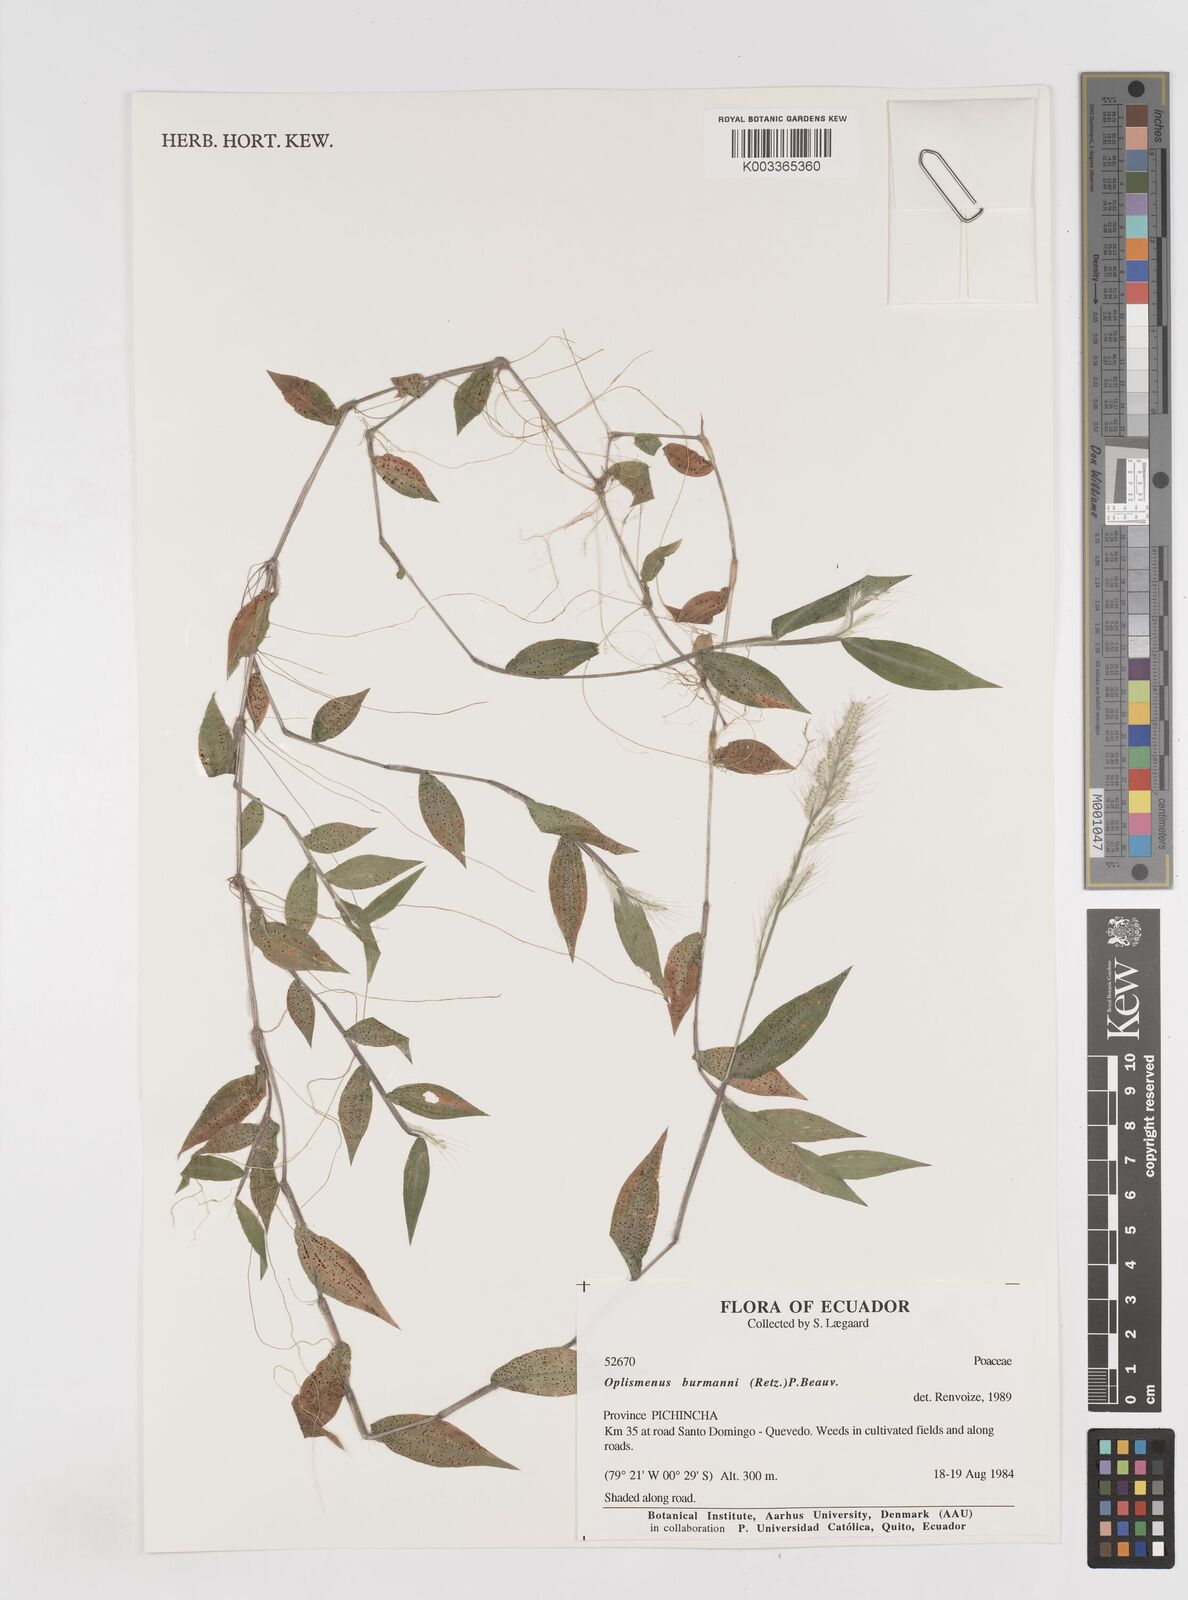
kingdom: Plantae
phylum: Tracheophyta
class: Liliopsida
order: Poales
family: Poaceae
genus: Oplismenus
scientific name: Oplismenus burmanni
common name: Burmann's basketgrass
